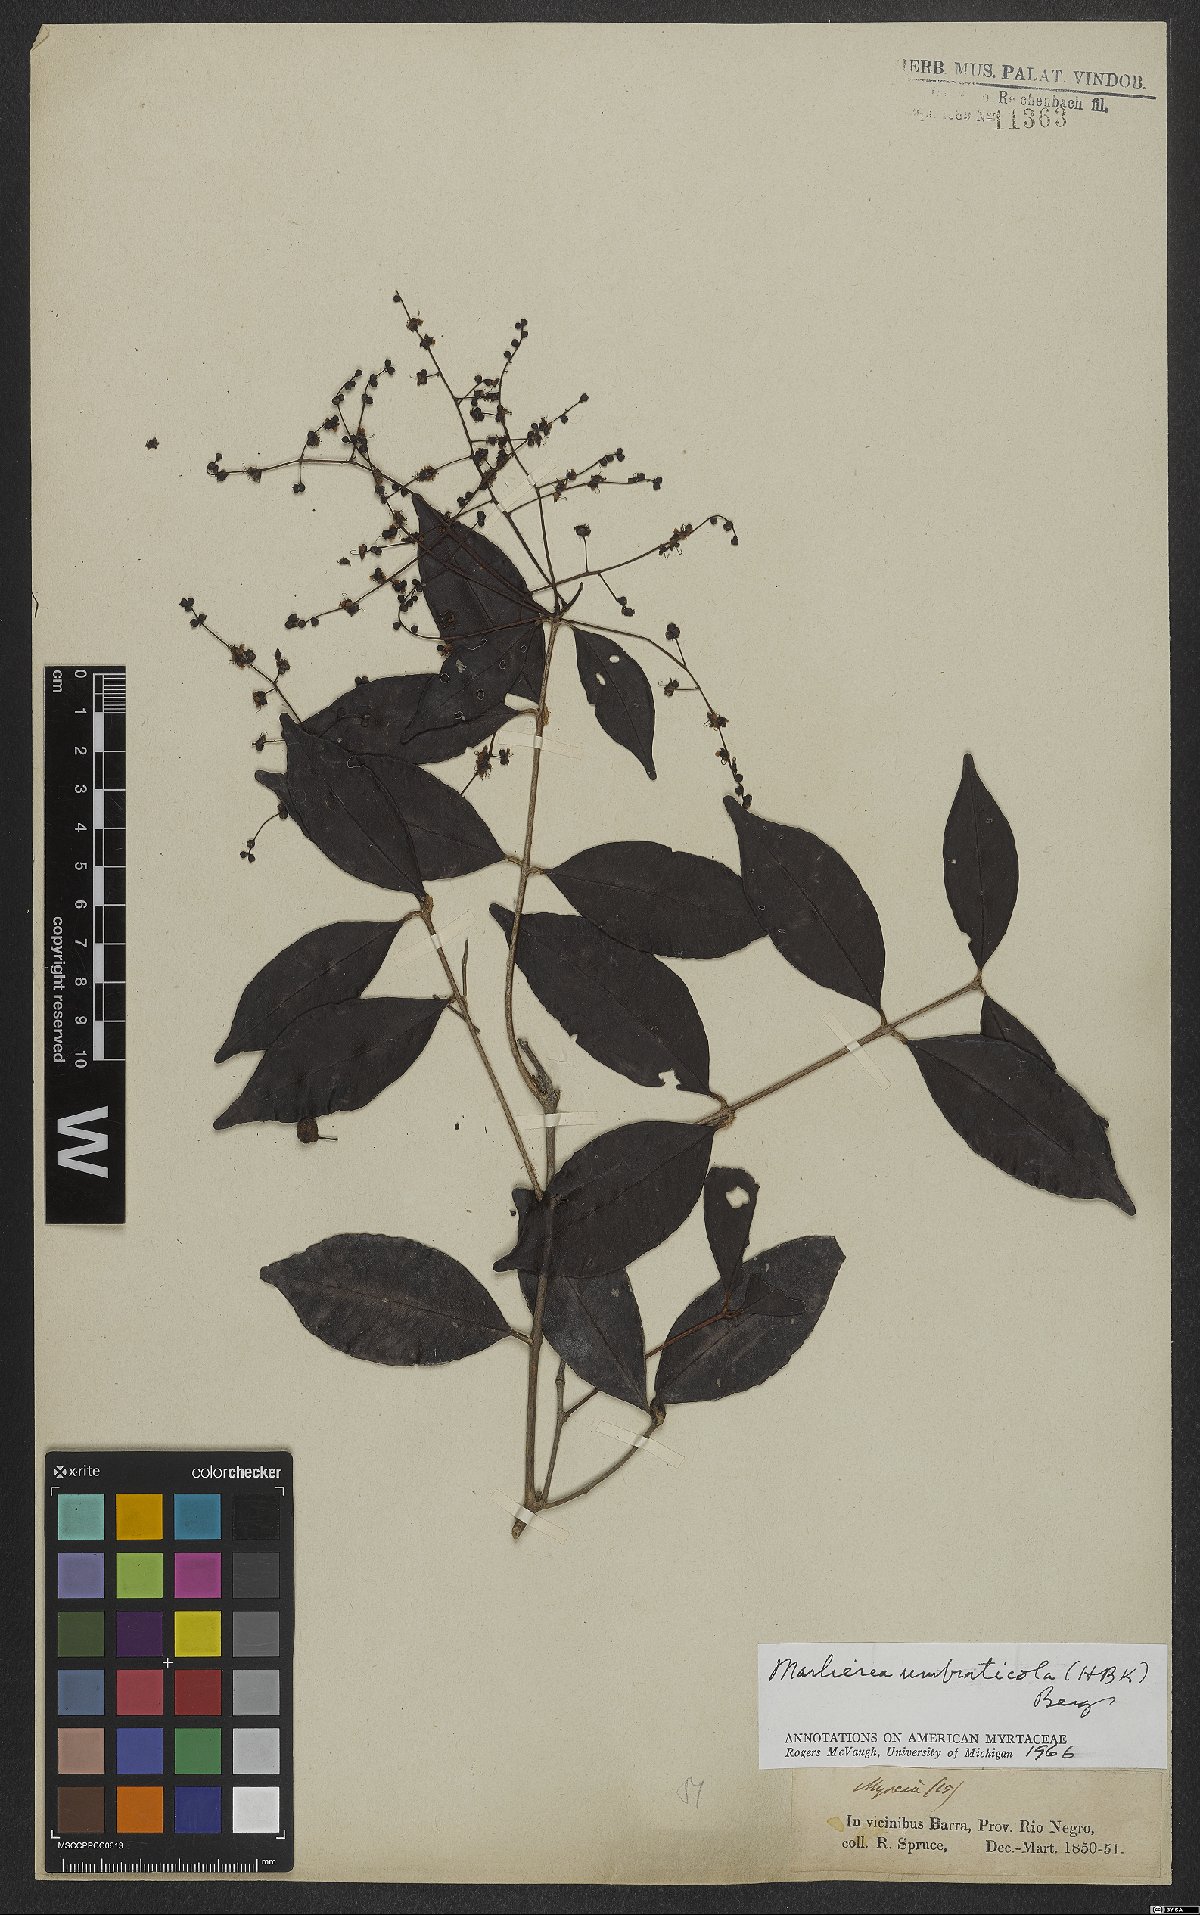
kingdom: Plantae
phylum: Tracheophyta
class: Magnoliopsida
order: Myrtales
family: Myrtaceae
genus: Myrcia
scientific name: Myrcia umbraticola
